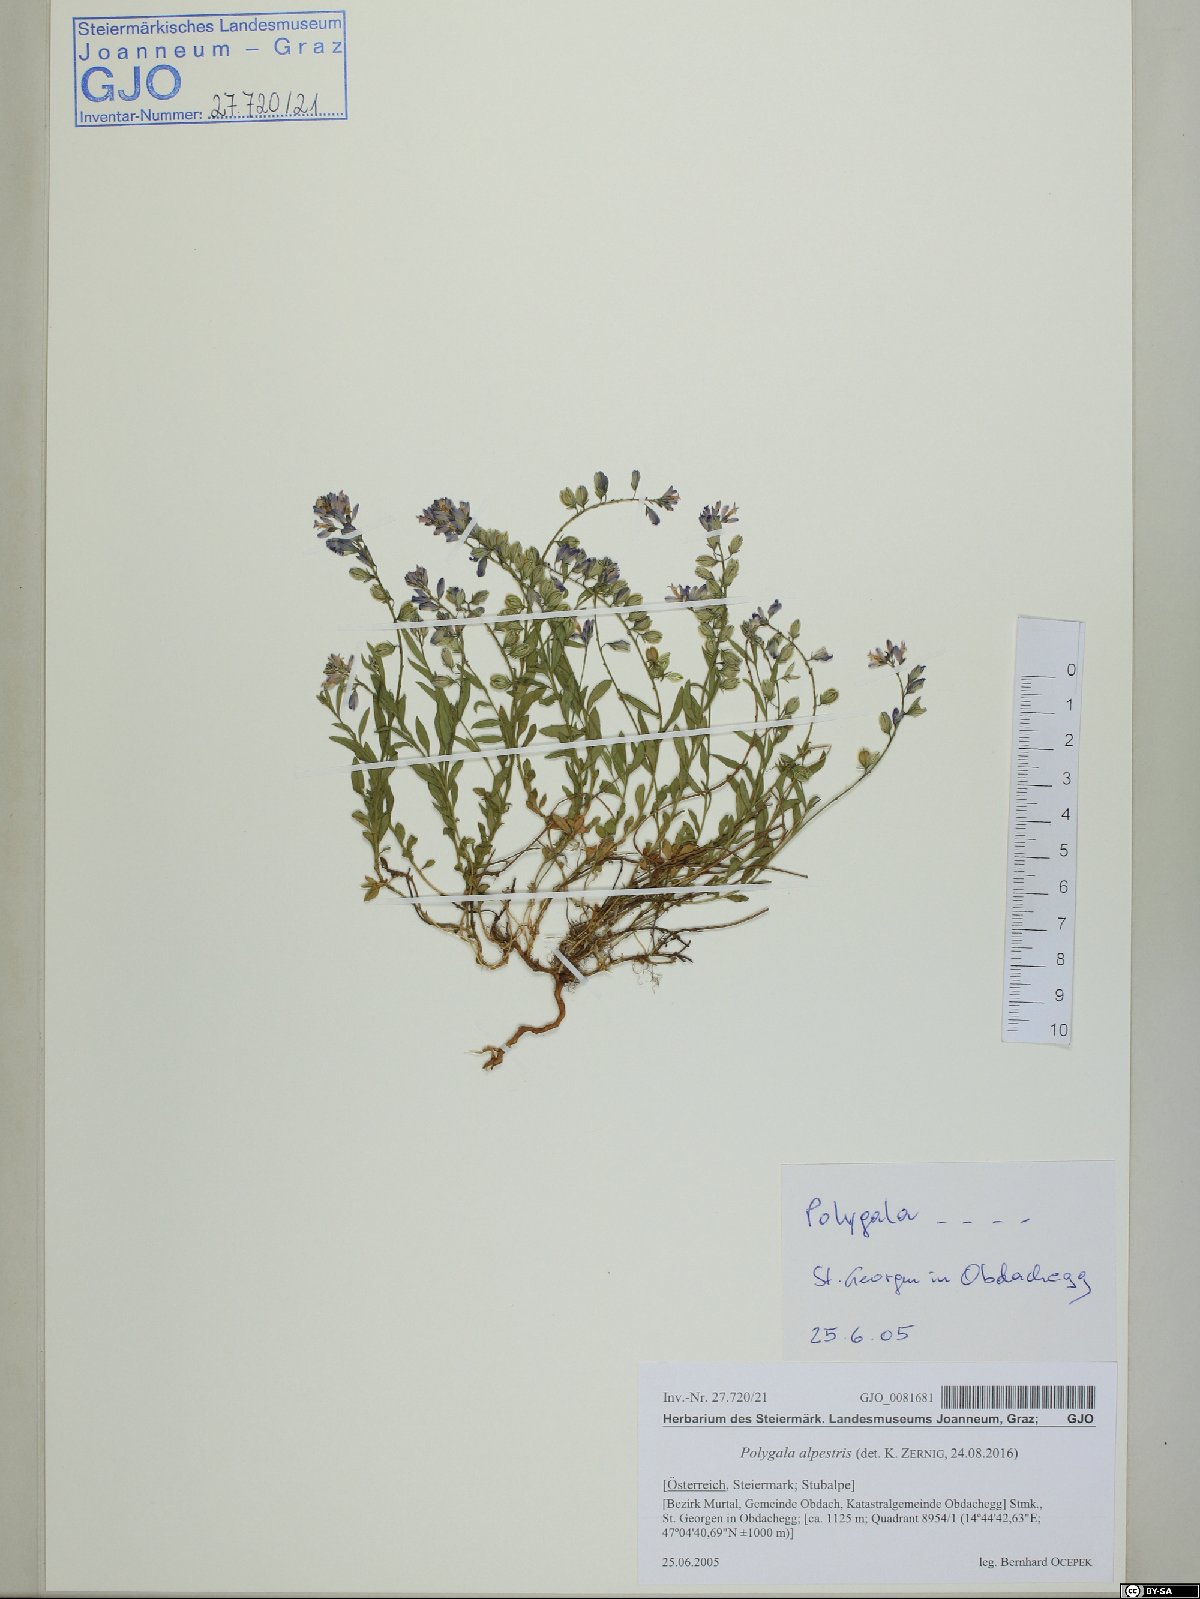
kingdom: Plantae
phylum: Tracheophyta
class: Magnoliopsida
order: Fabales
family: Polygalaceae
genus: Polygala
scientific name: Polygala alpestris
